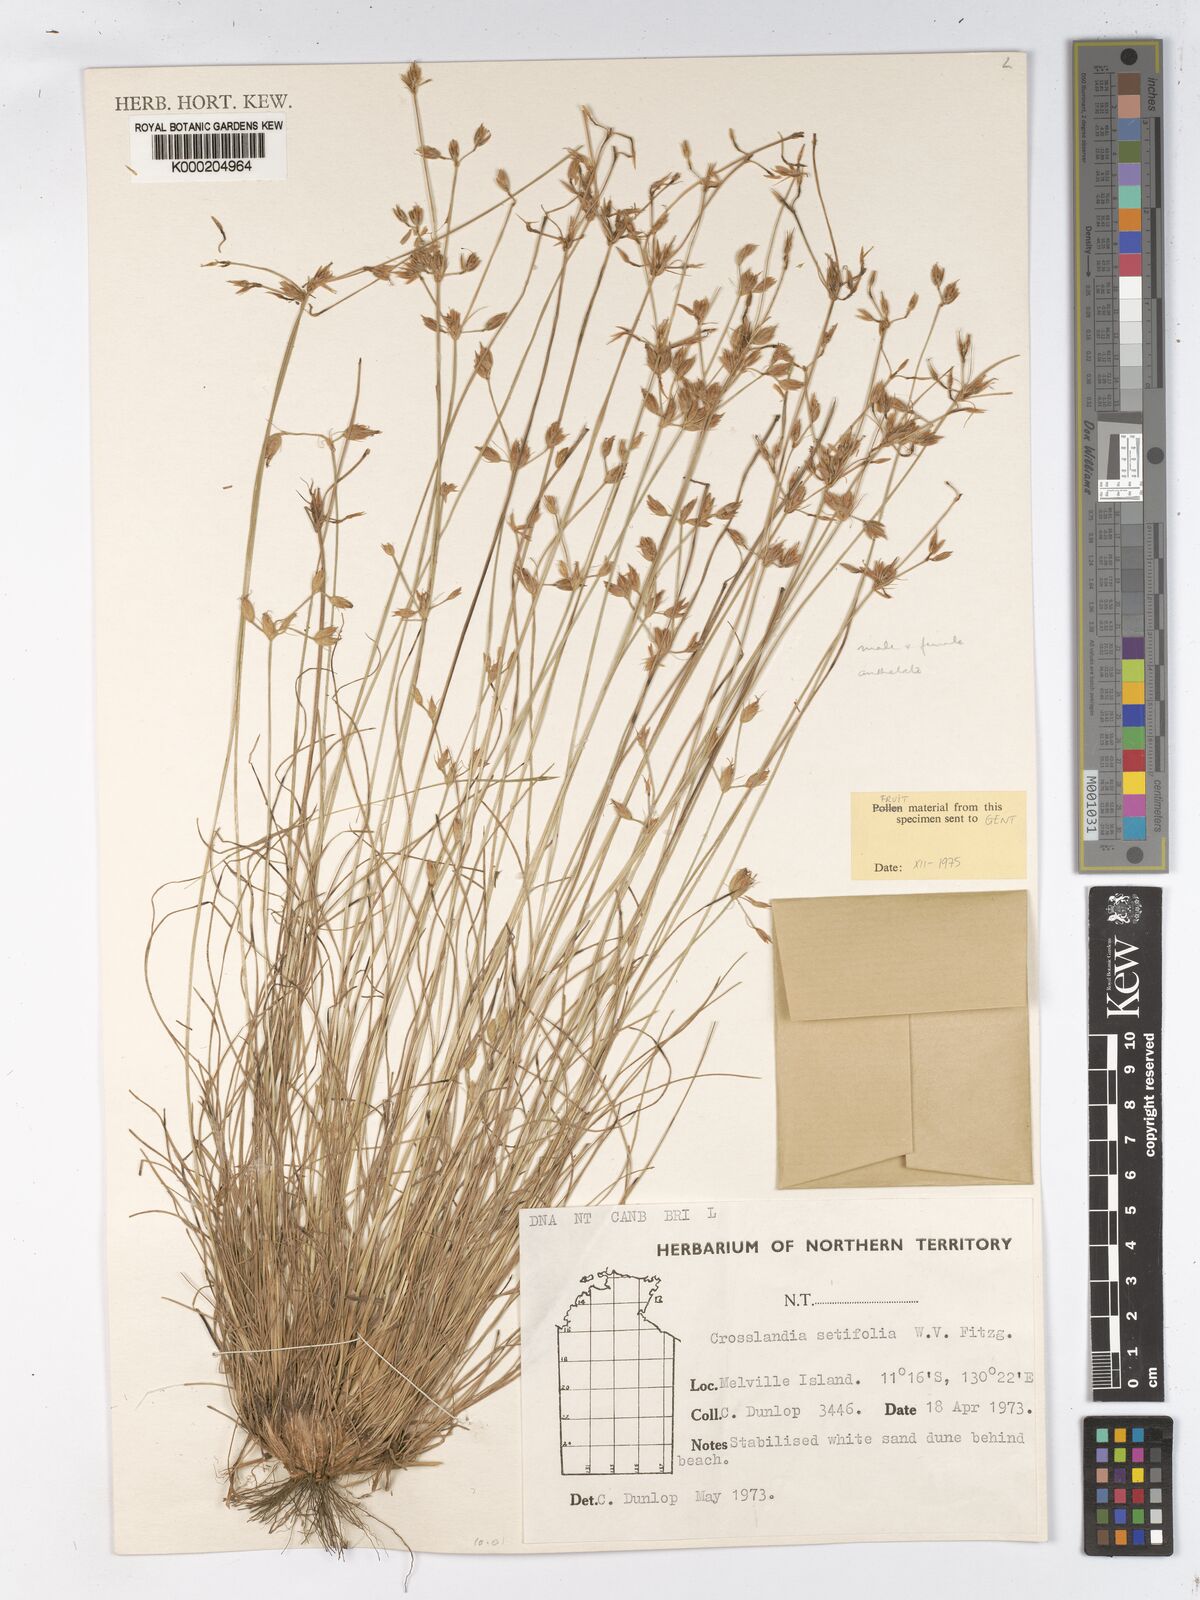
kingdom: Plantae
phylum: Tracheophyta
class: Liliopsida
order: Poales
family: Cyperaceae
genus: Fimbristylis
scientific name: Fimbristylis crosslandii
